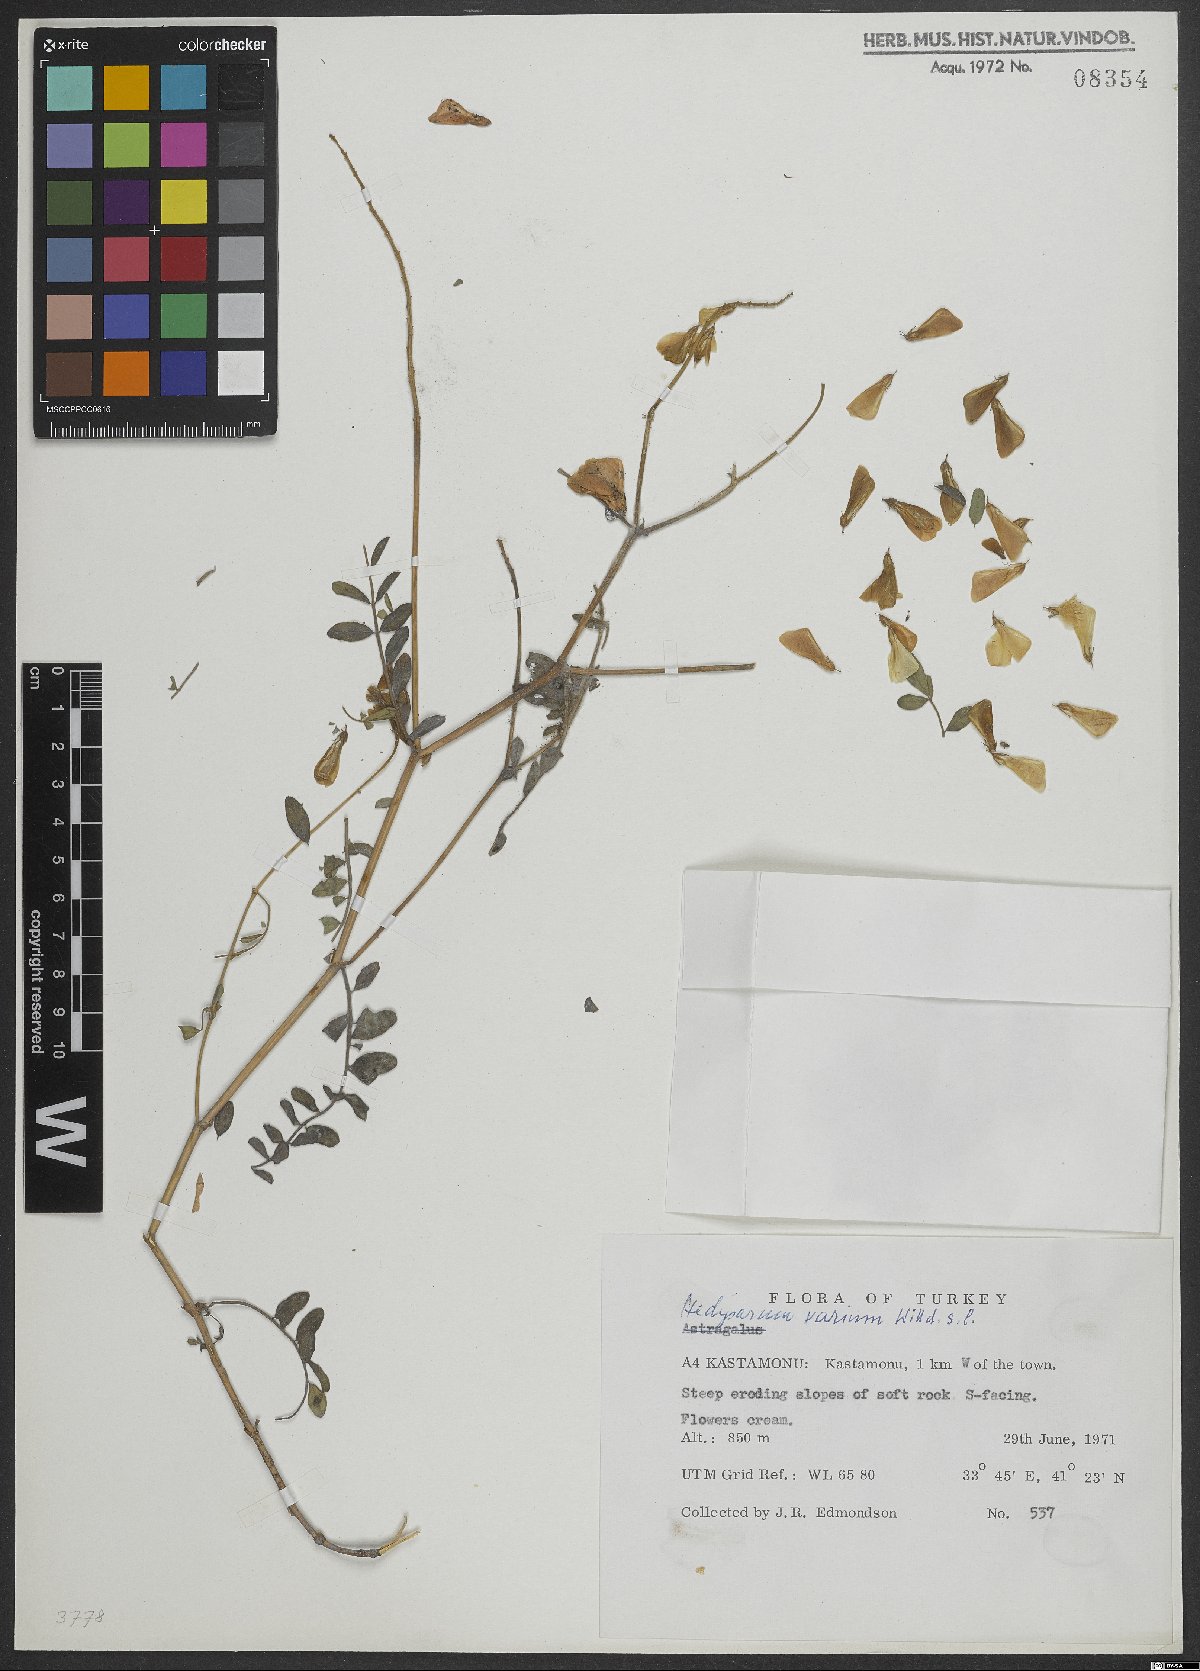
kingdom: Plantae
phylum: Tracheophyta
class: Magnoliopsida
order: Fabales
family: Fabaceae
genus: Hedysarum
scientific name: Hedysarum varium
